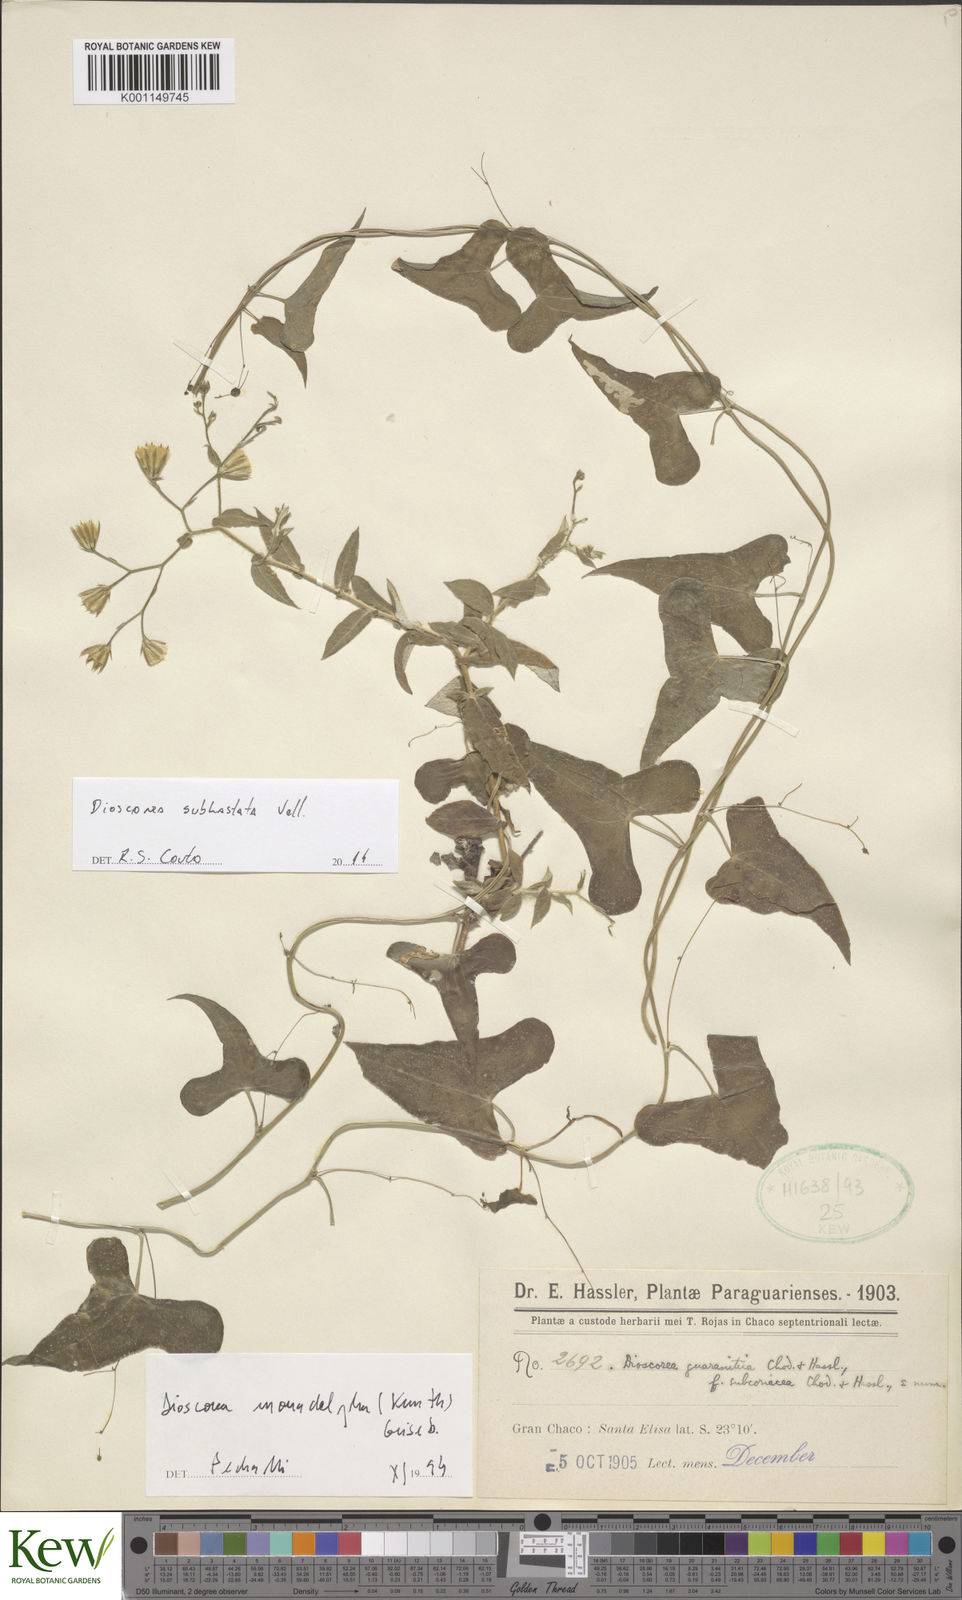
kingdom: Plantae
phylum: Tracheophyta
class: Liliopsida
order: Dioscoreales
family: Dioscoreaceae
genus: Dioscorea
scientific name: Dioscorea monadelpha
